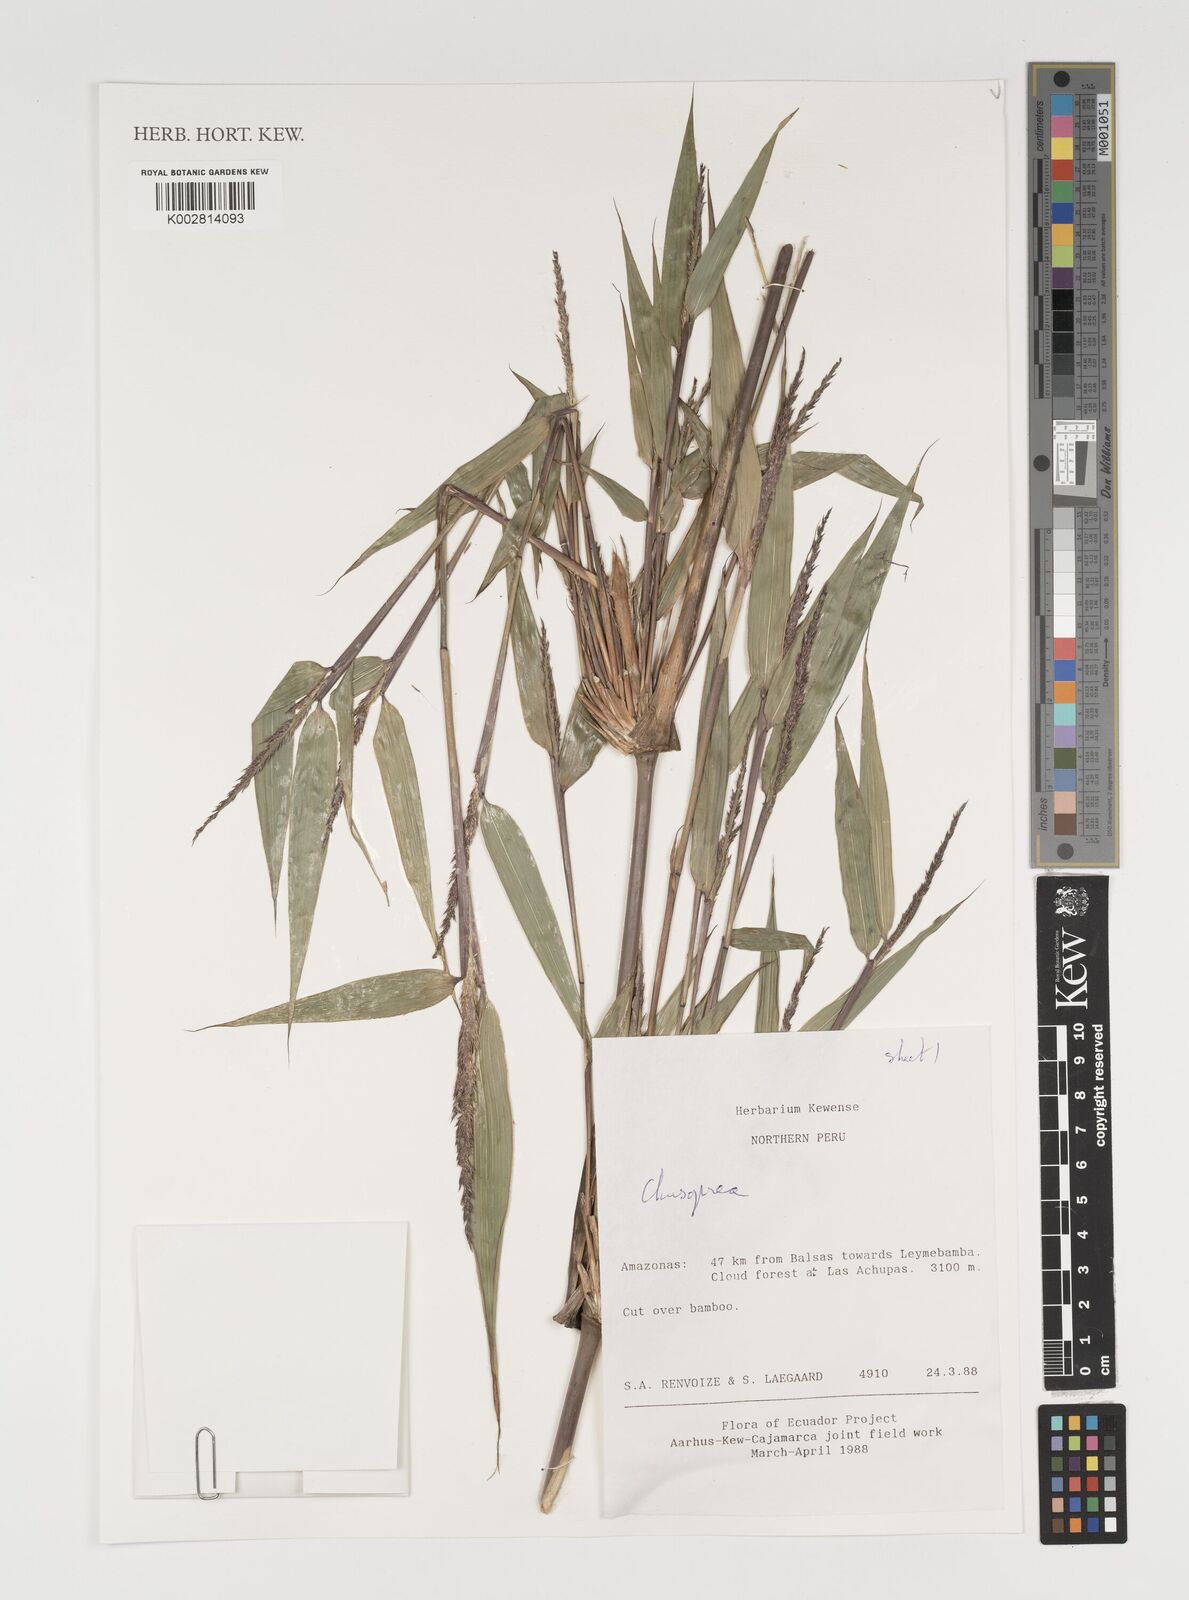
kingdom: Plantae
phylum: Tracheophyta
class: Liliopsida
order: Poales
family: Poaceae
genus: Chusquea
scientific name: Chusquea
